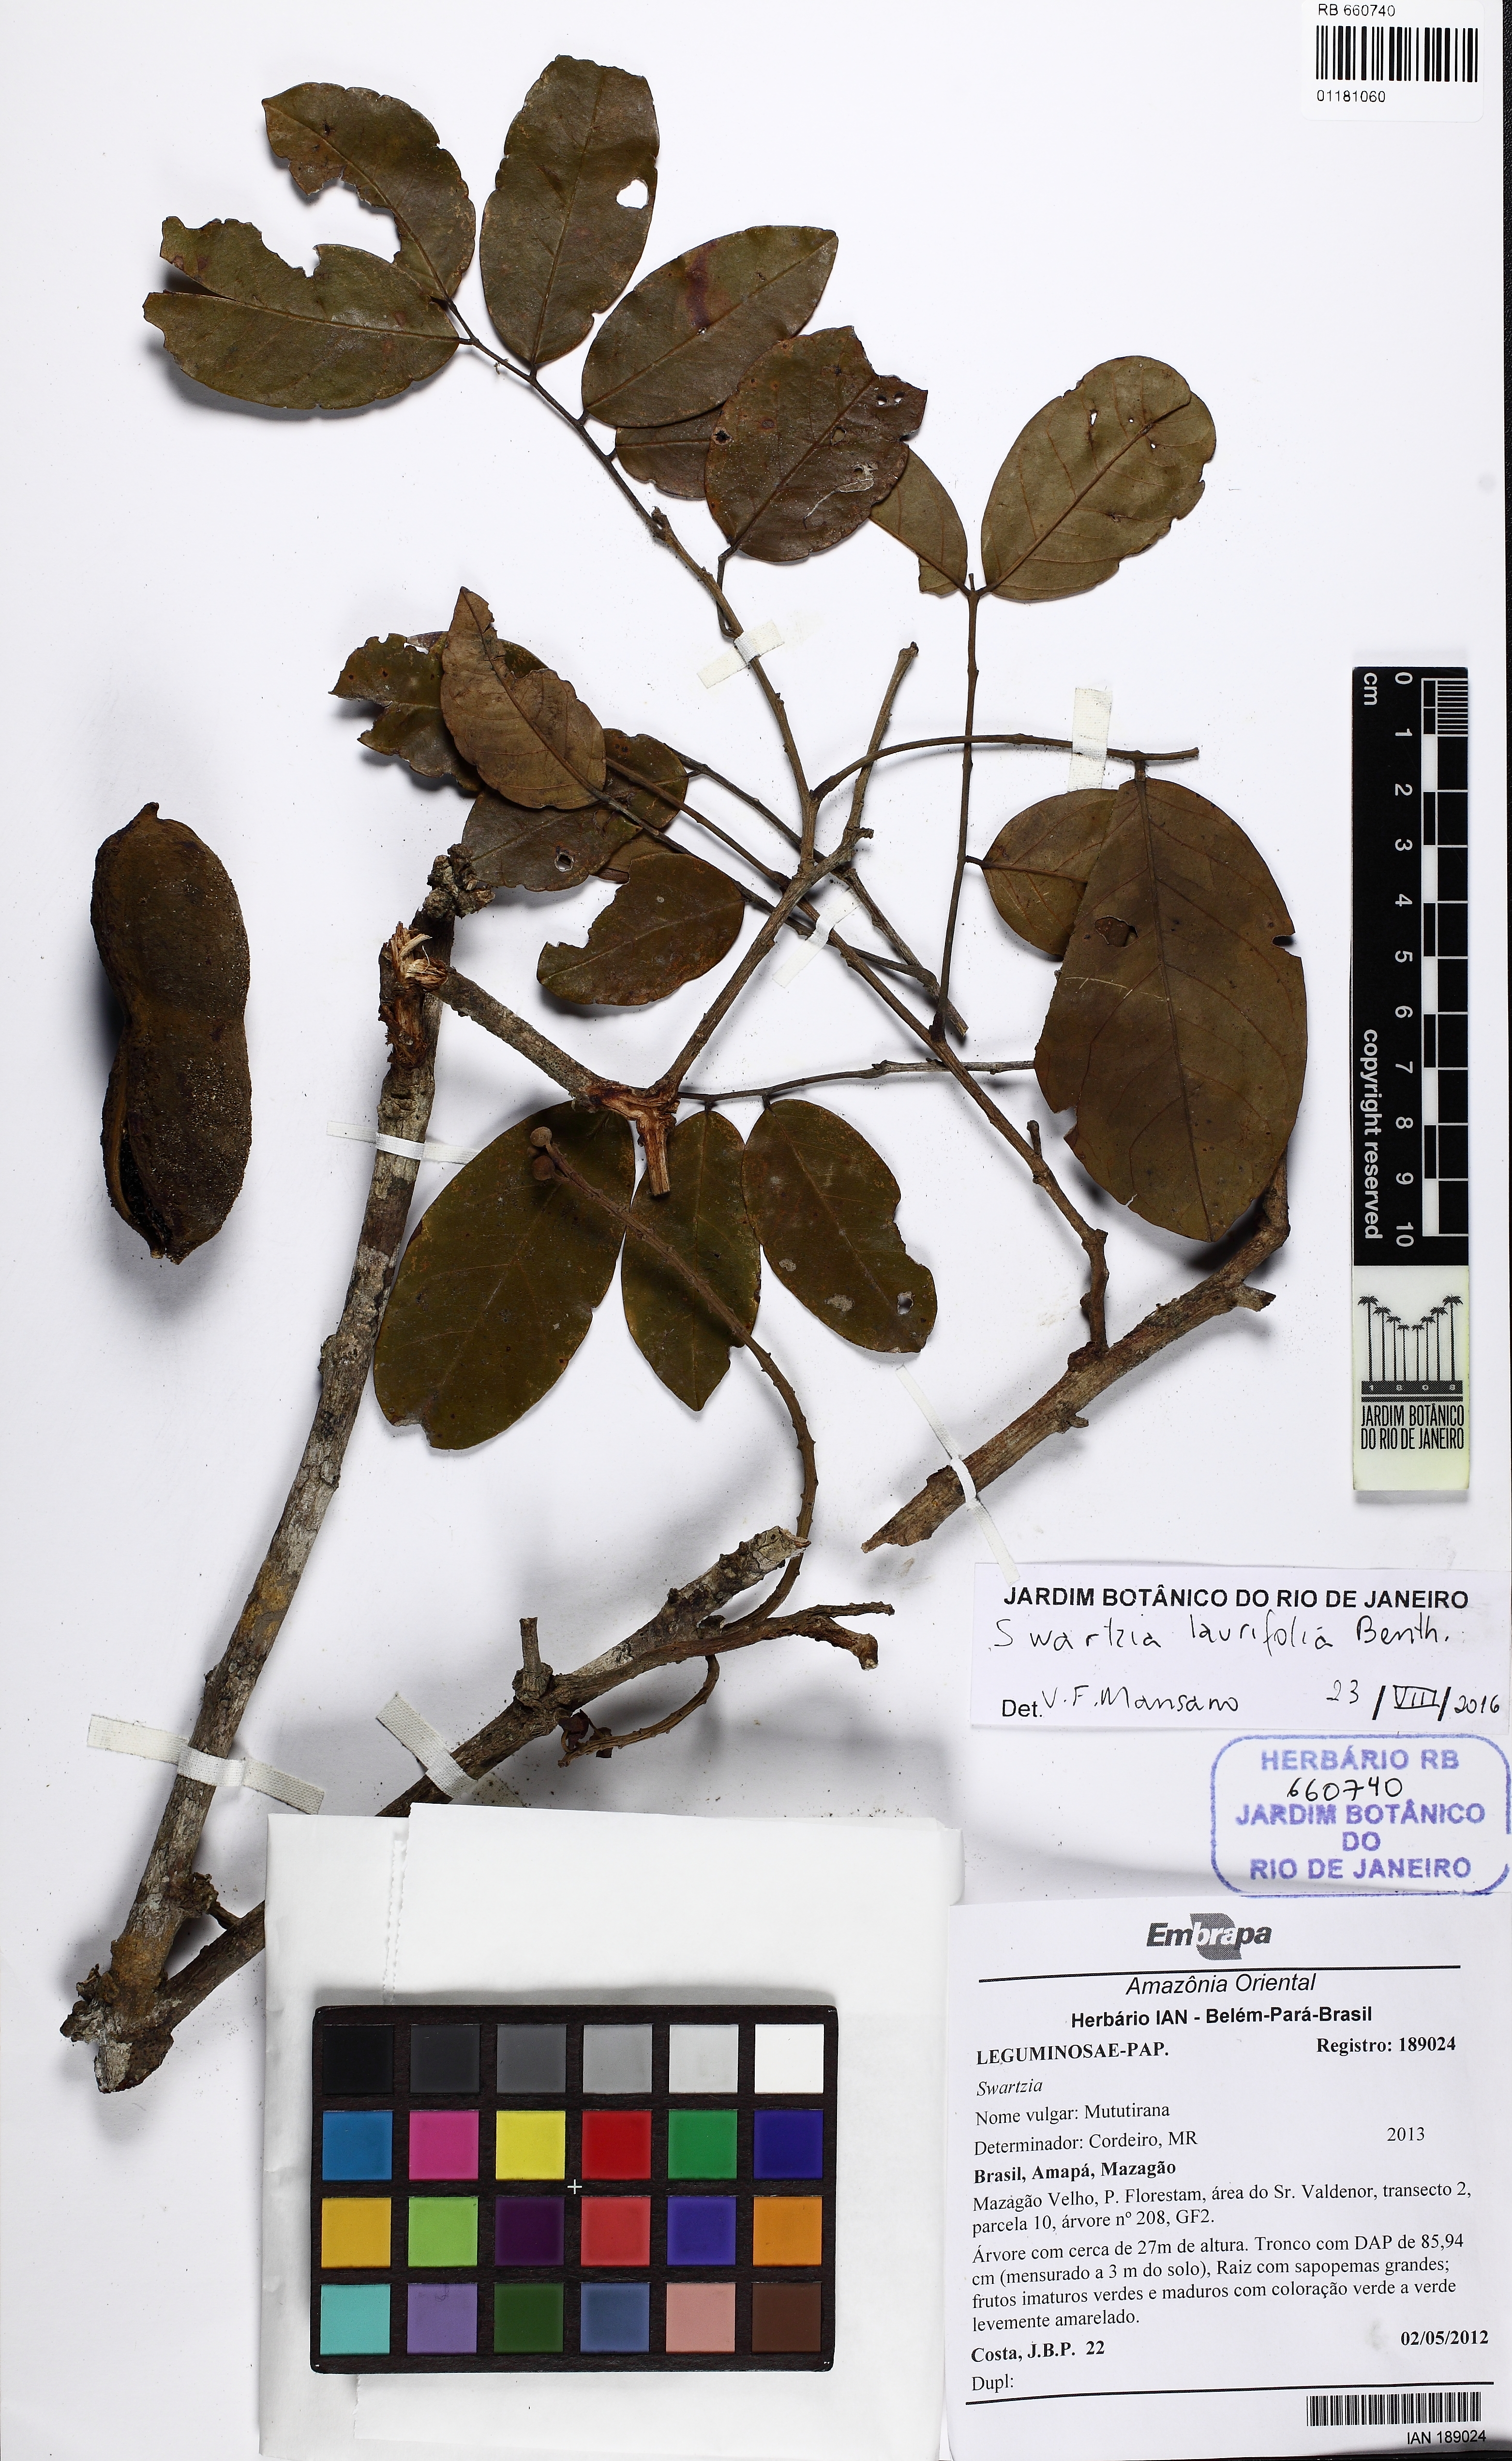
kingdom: Plantae
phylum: Tracheophyta
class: Magnoliopsida
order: Fabales
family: Fabaceae
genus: Swartzia
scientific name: Swartzia laurifolia
